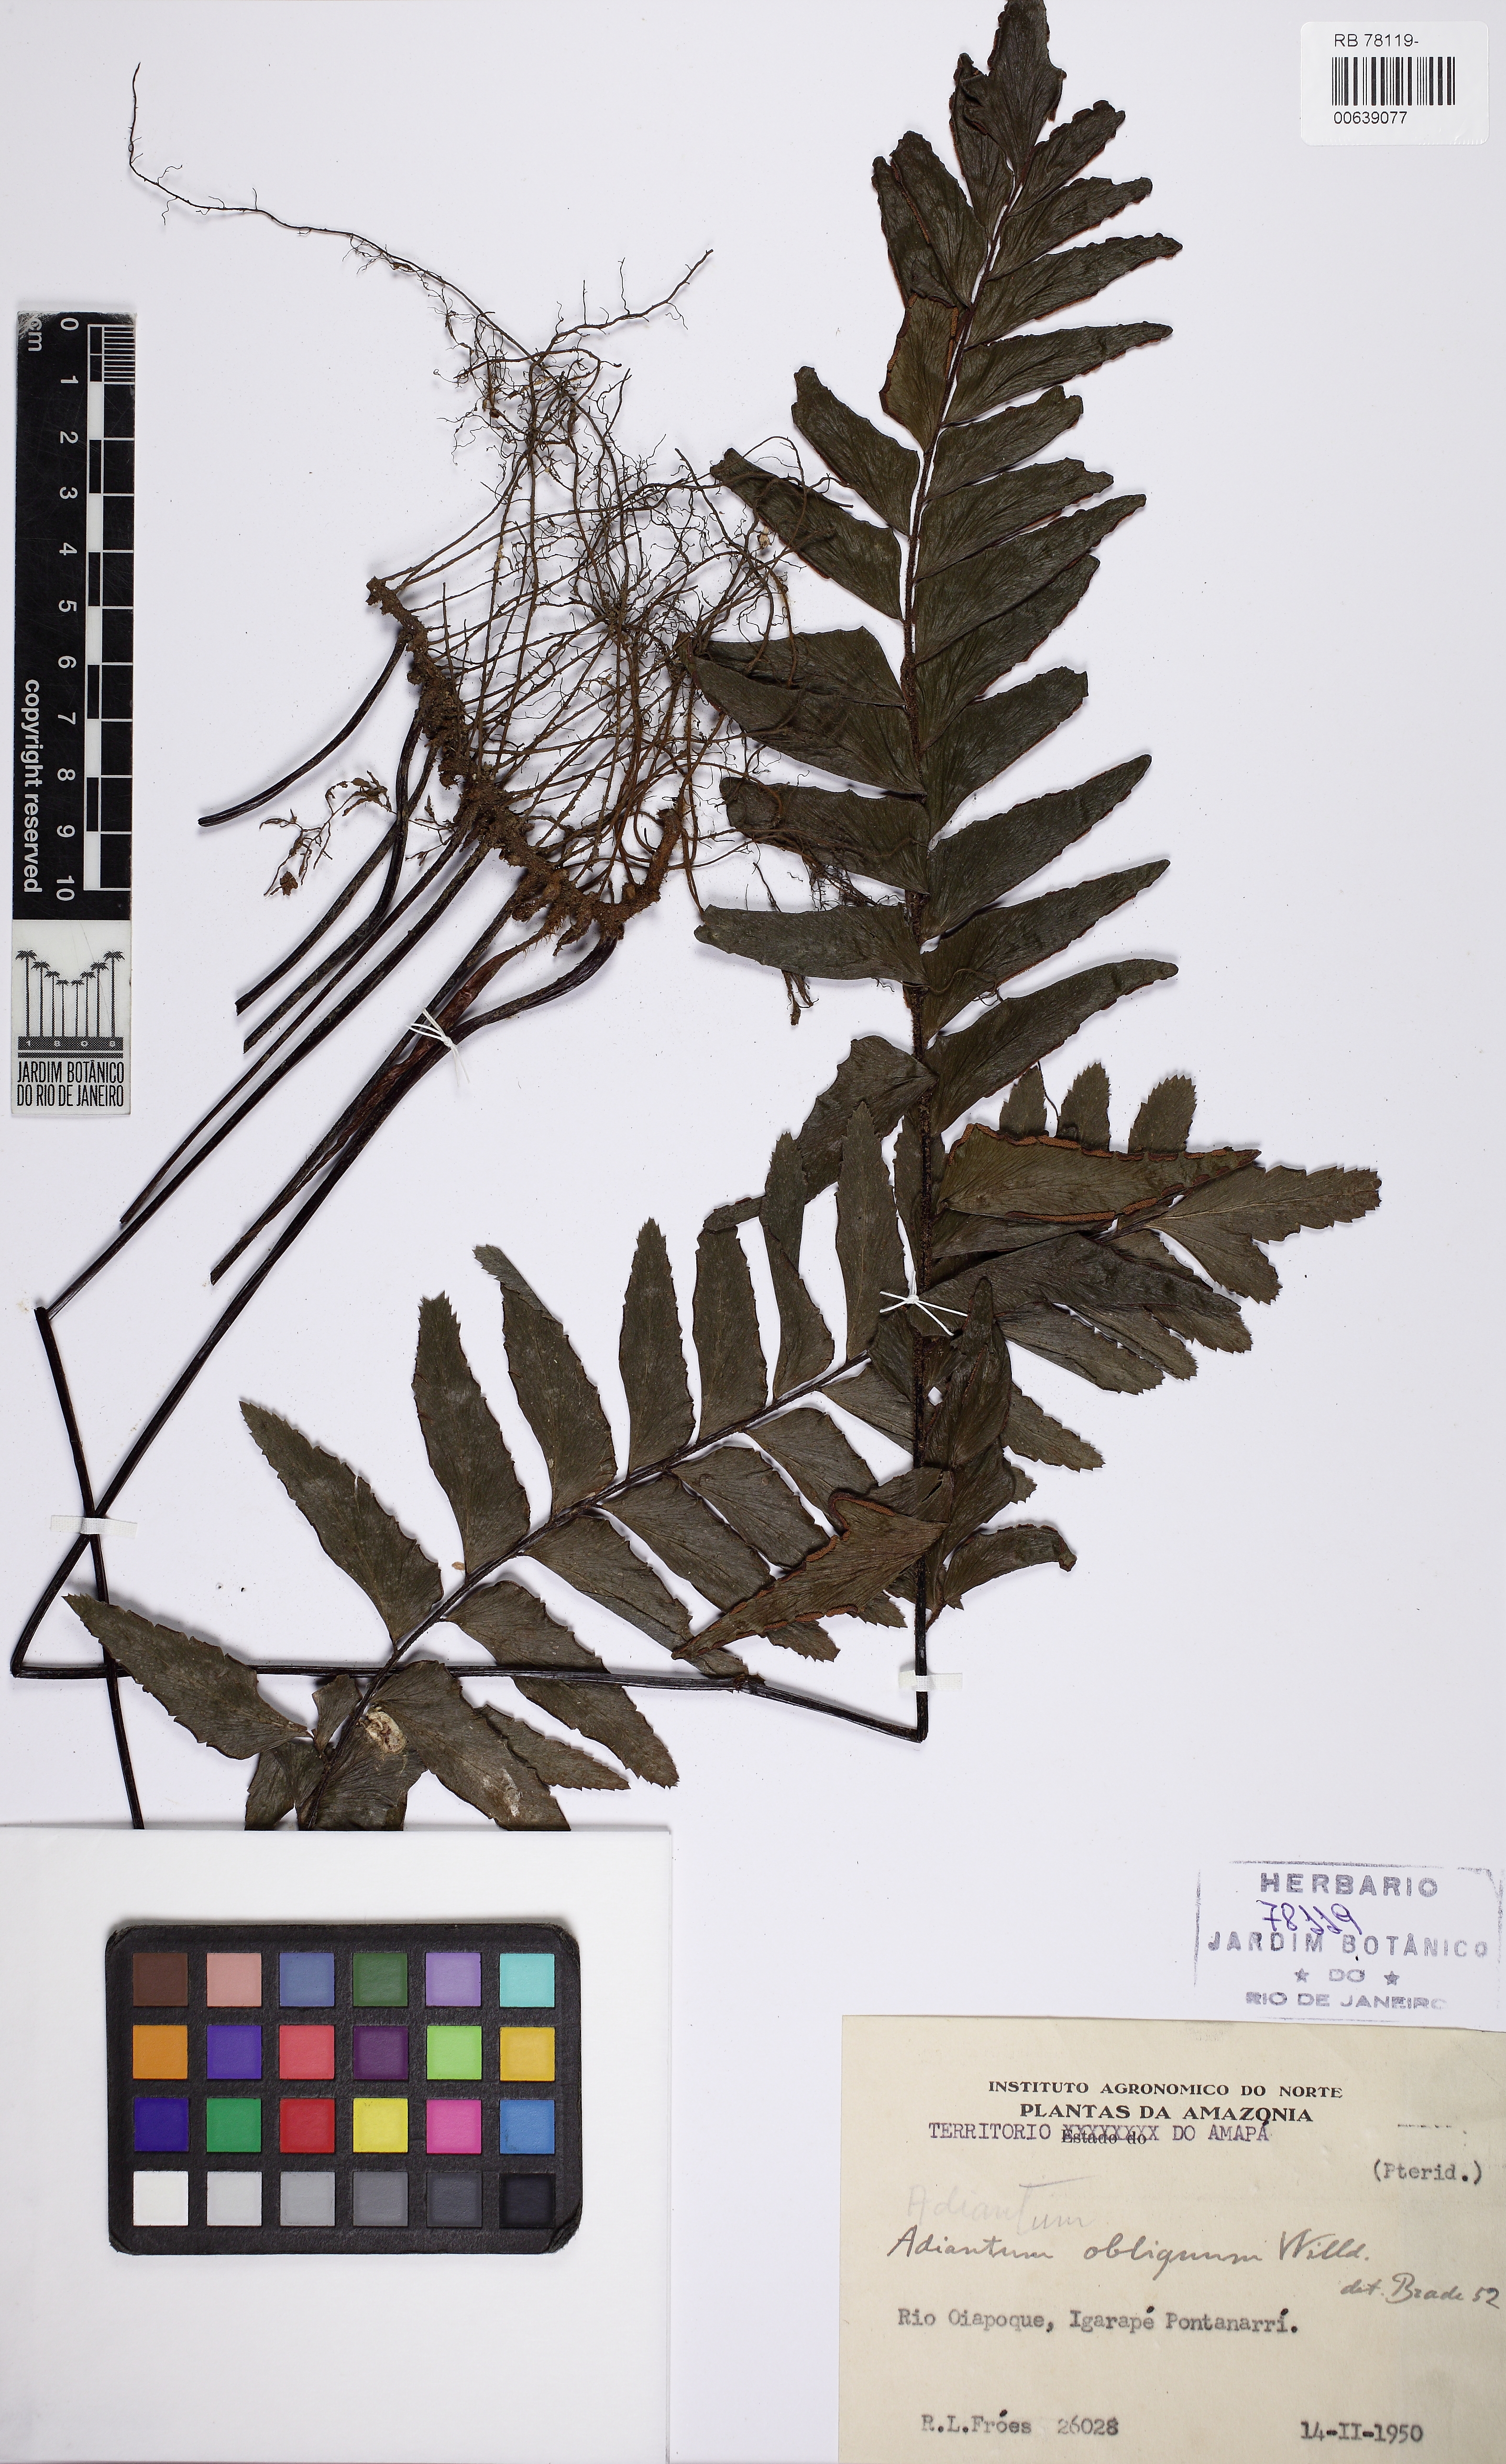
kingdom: Plantae
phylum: Tracheophyta
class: Polypodiopsida
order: Polypodiales
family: Pteridaceae
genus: Adiantum
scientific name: Adiantum obliquum
